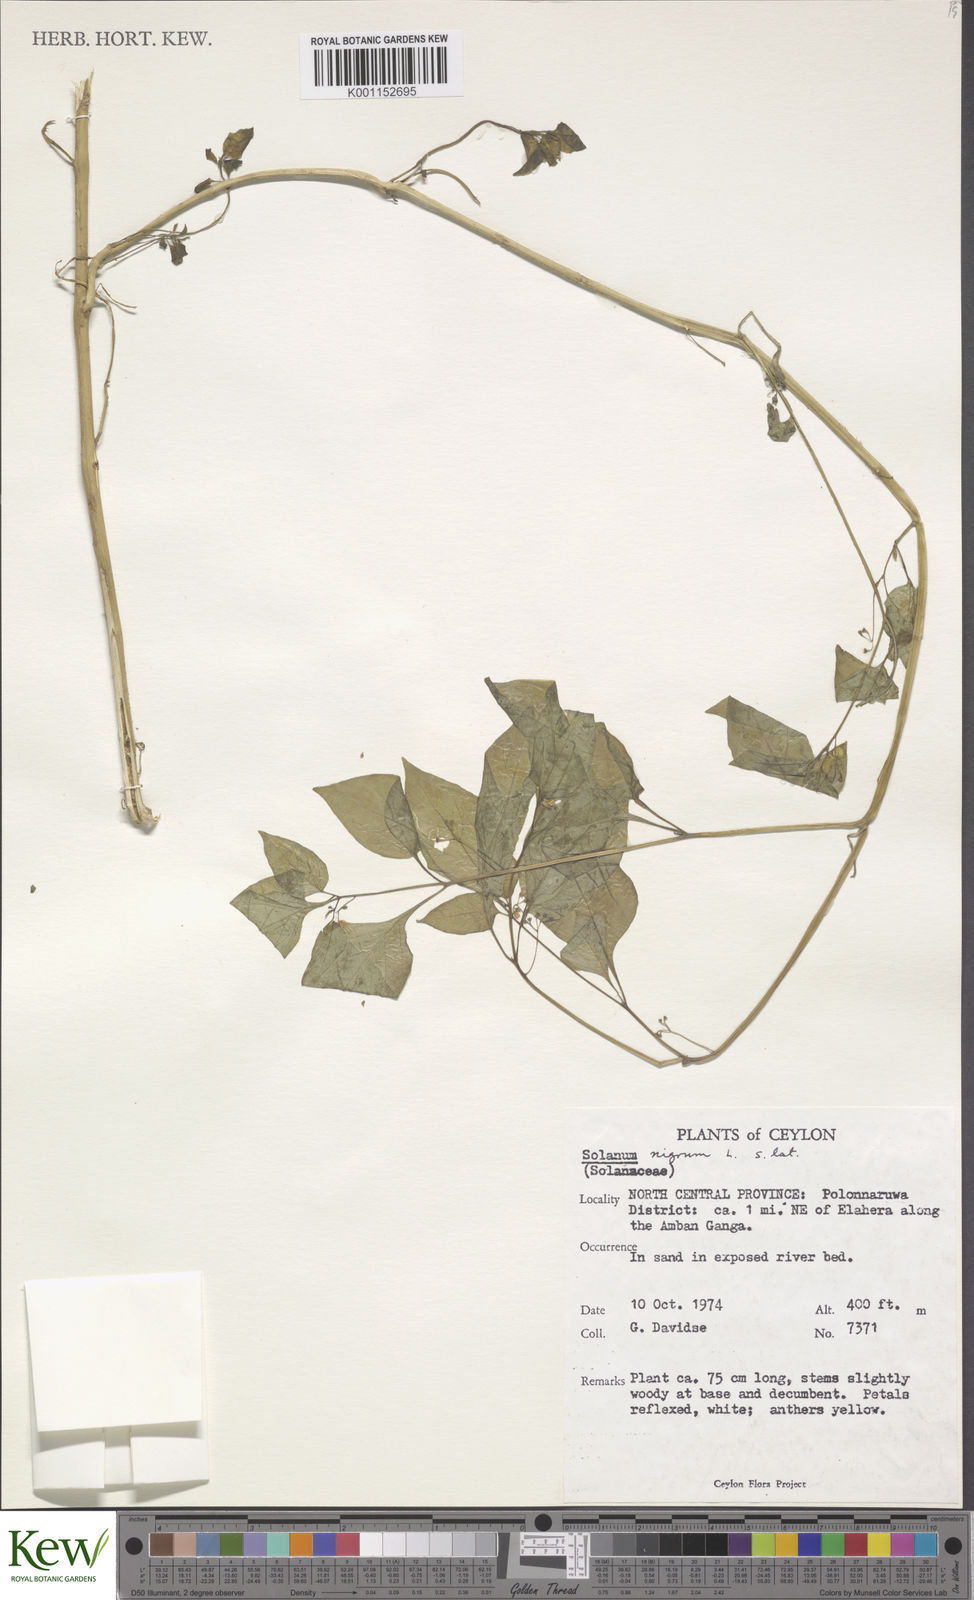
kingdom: Plantae
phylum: Tracheophyta
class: Magnoliopsida
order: Solanales
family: Solanaceae
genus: Solanum
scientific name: Solanum nigrum
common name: Black nightshade
